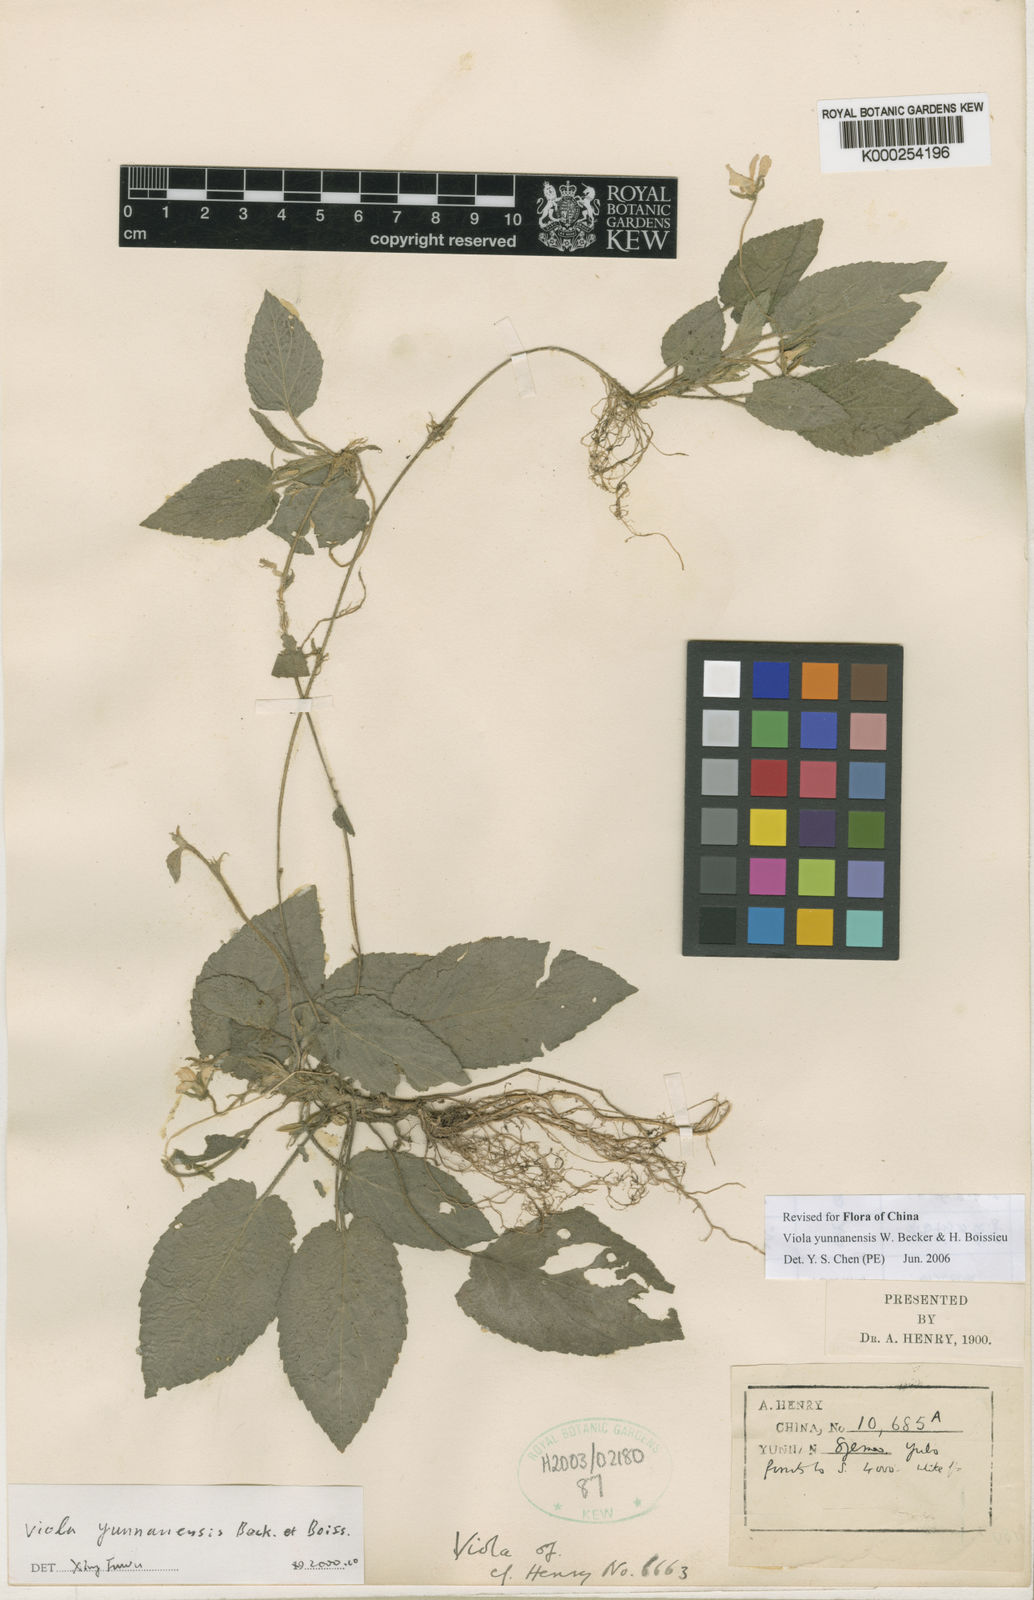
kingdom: Plantae
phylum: Tracheophyta
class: Magnoliopsida
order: Malpighiales
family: Violaceae
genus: Viola
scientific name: Viola yunnanensis
